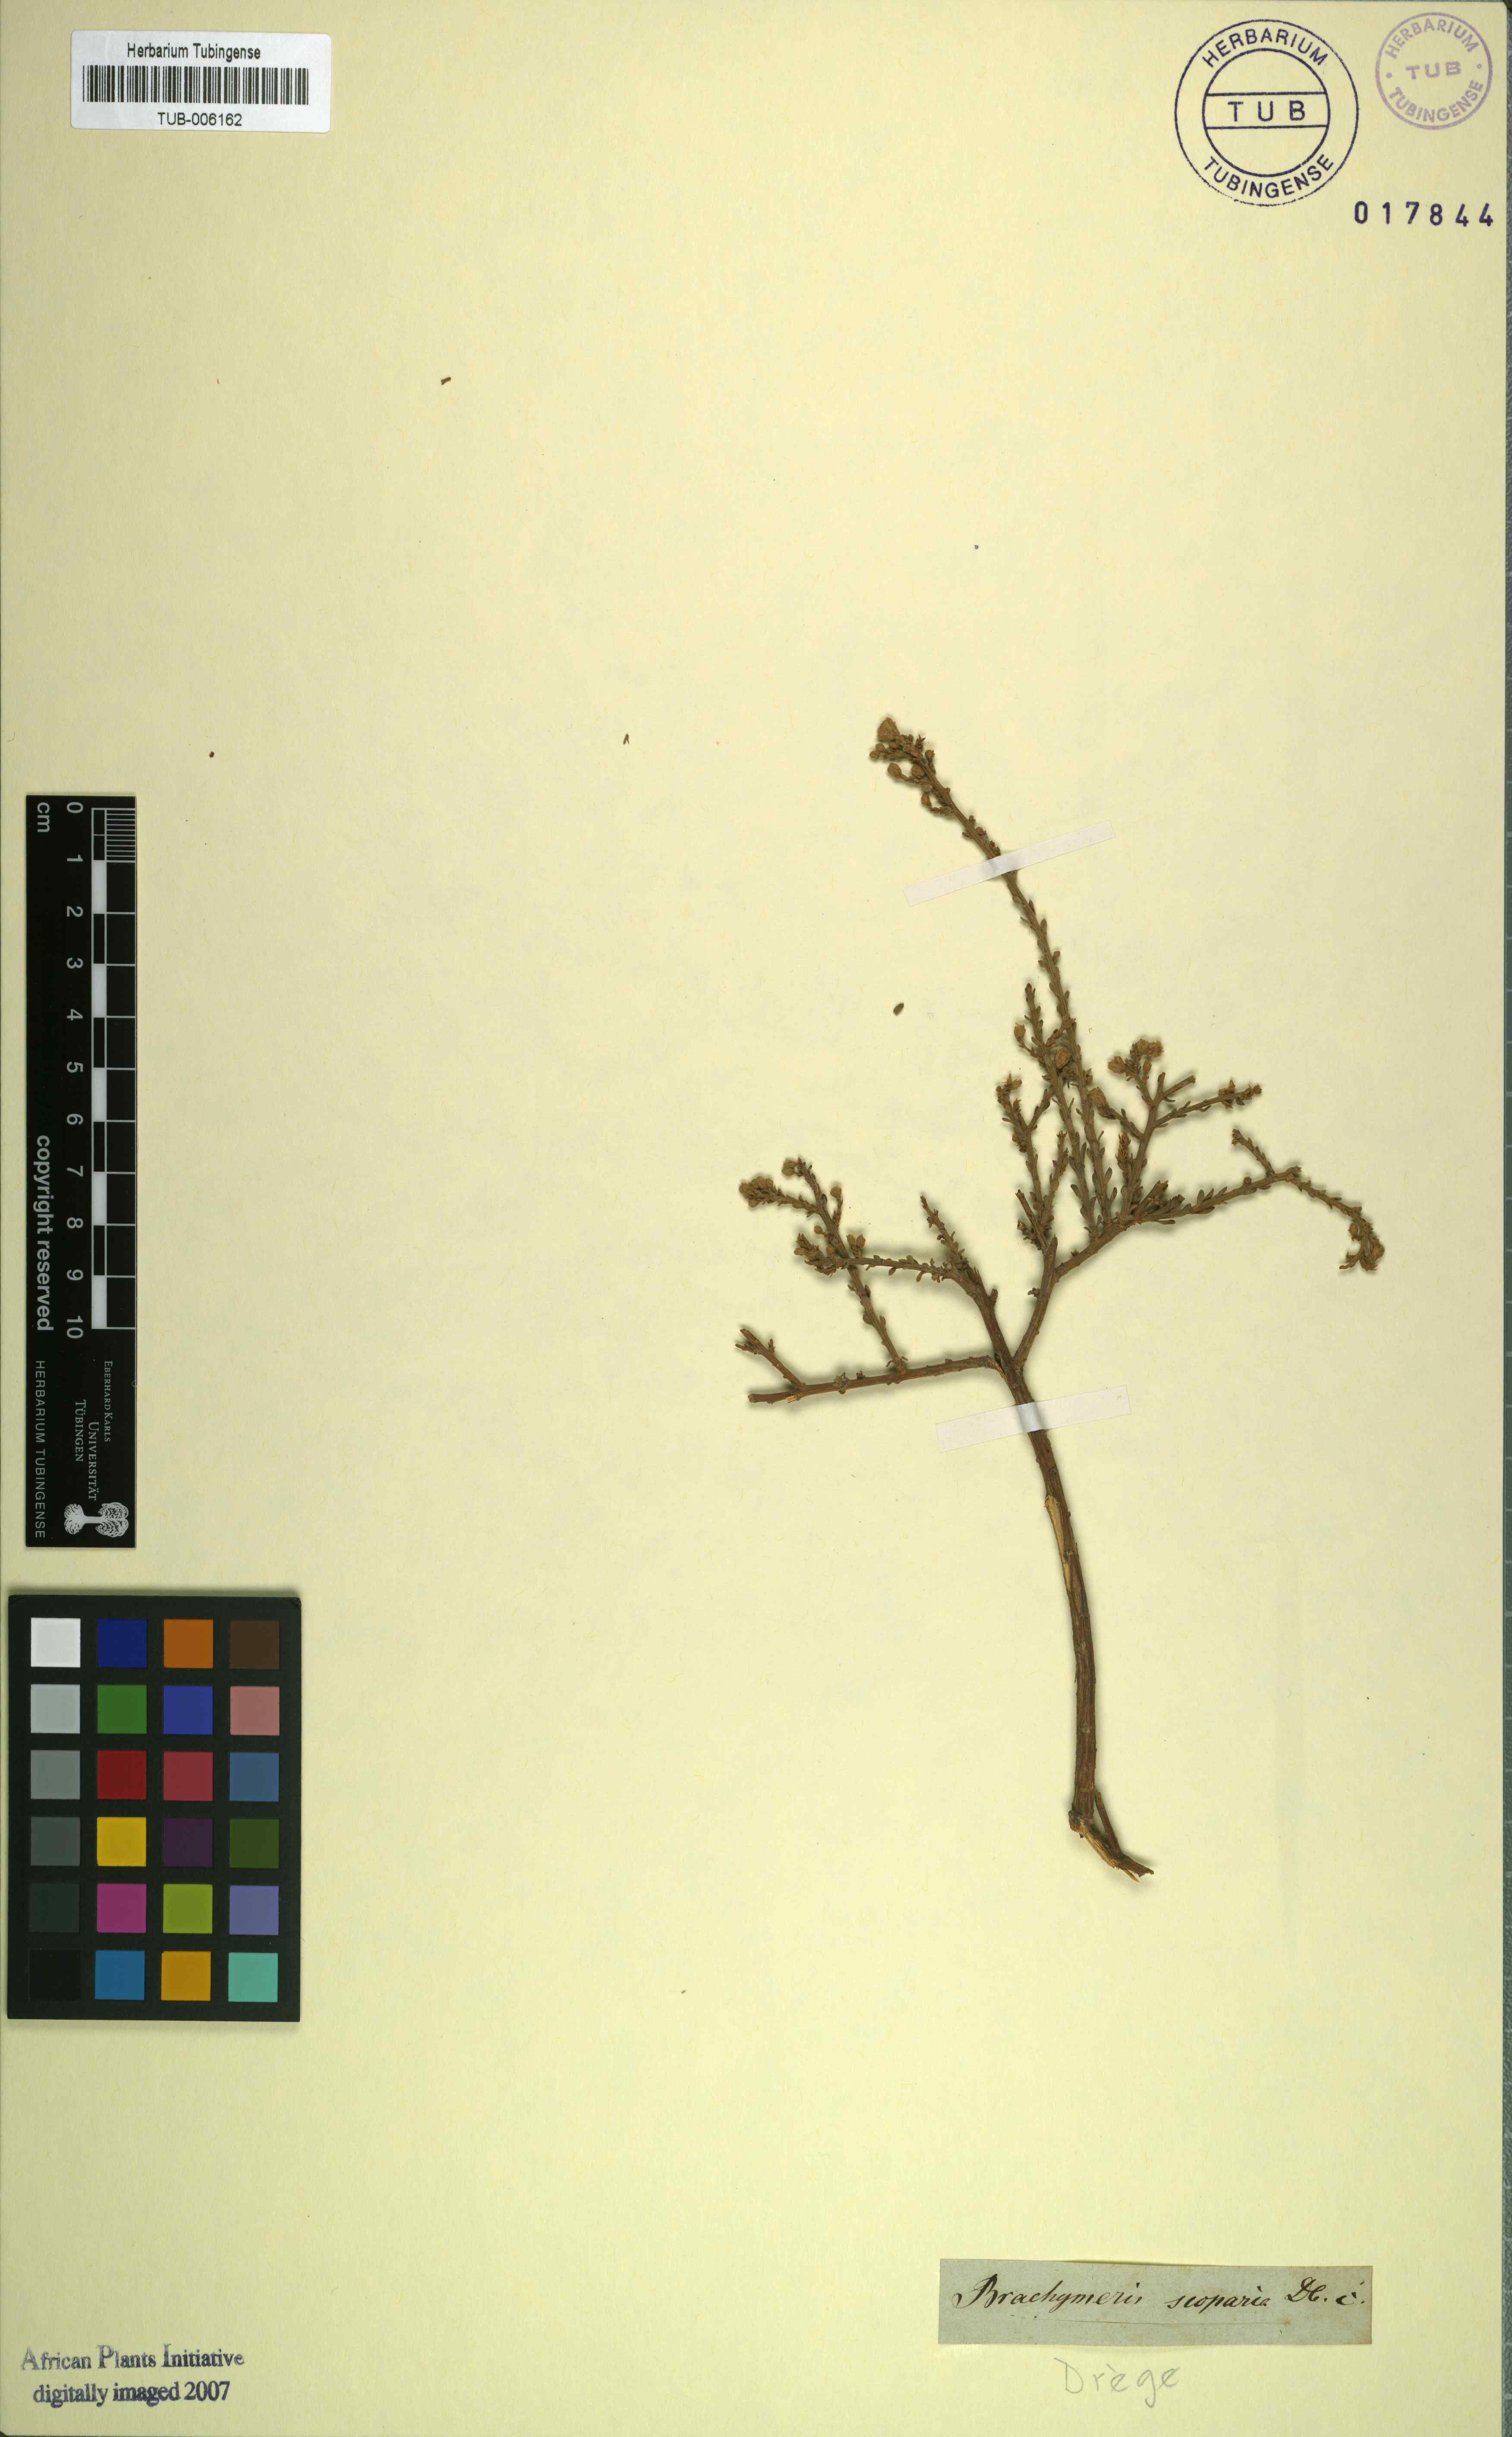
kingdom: Plantae
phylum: Tracheophyta
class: Magnoliopsida
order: Asterales
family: Asteraceae
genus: Marasmodes
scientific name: Marasmodes
